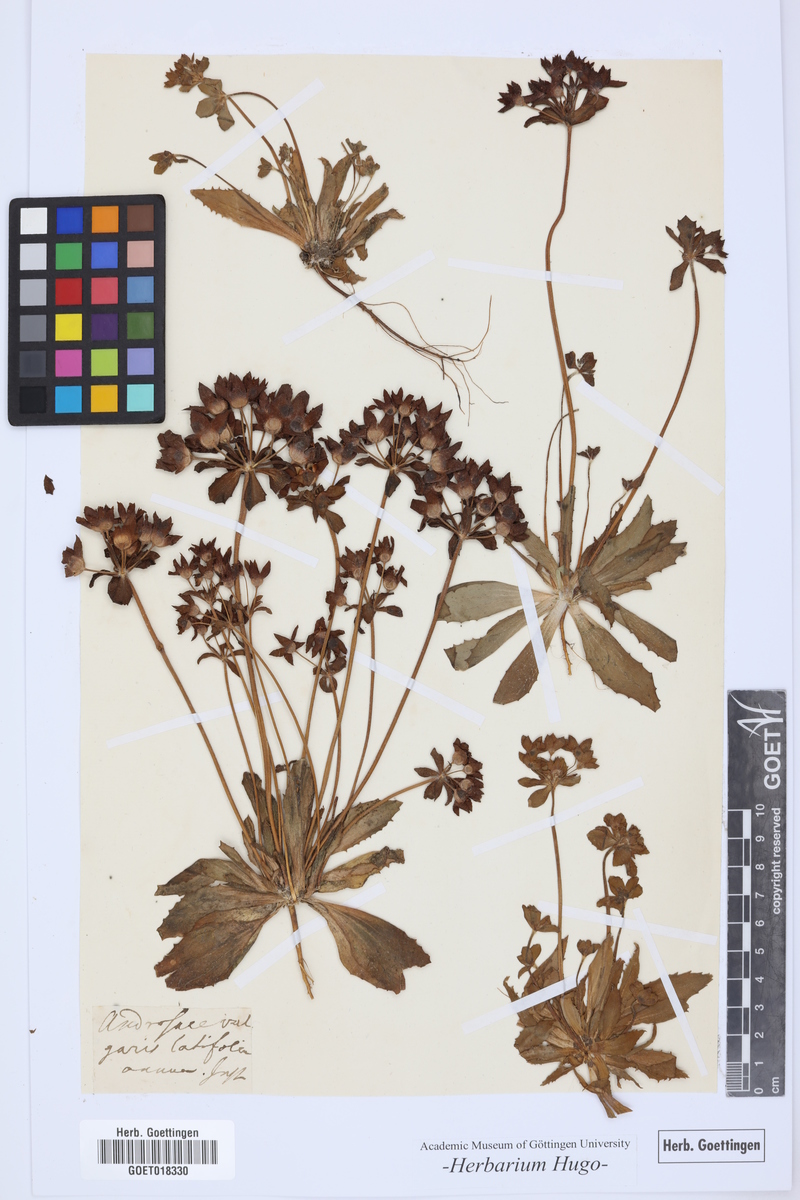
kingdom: Plantae
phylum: Tracheophyta
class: Magnoliopsida
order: Ericales
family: Primulaceae
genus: Androsace
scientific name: Androsace maxima
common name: Annual androsace
